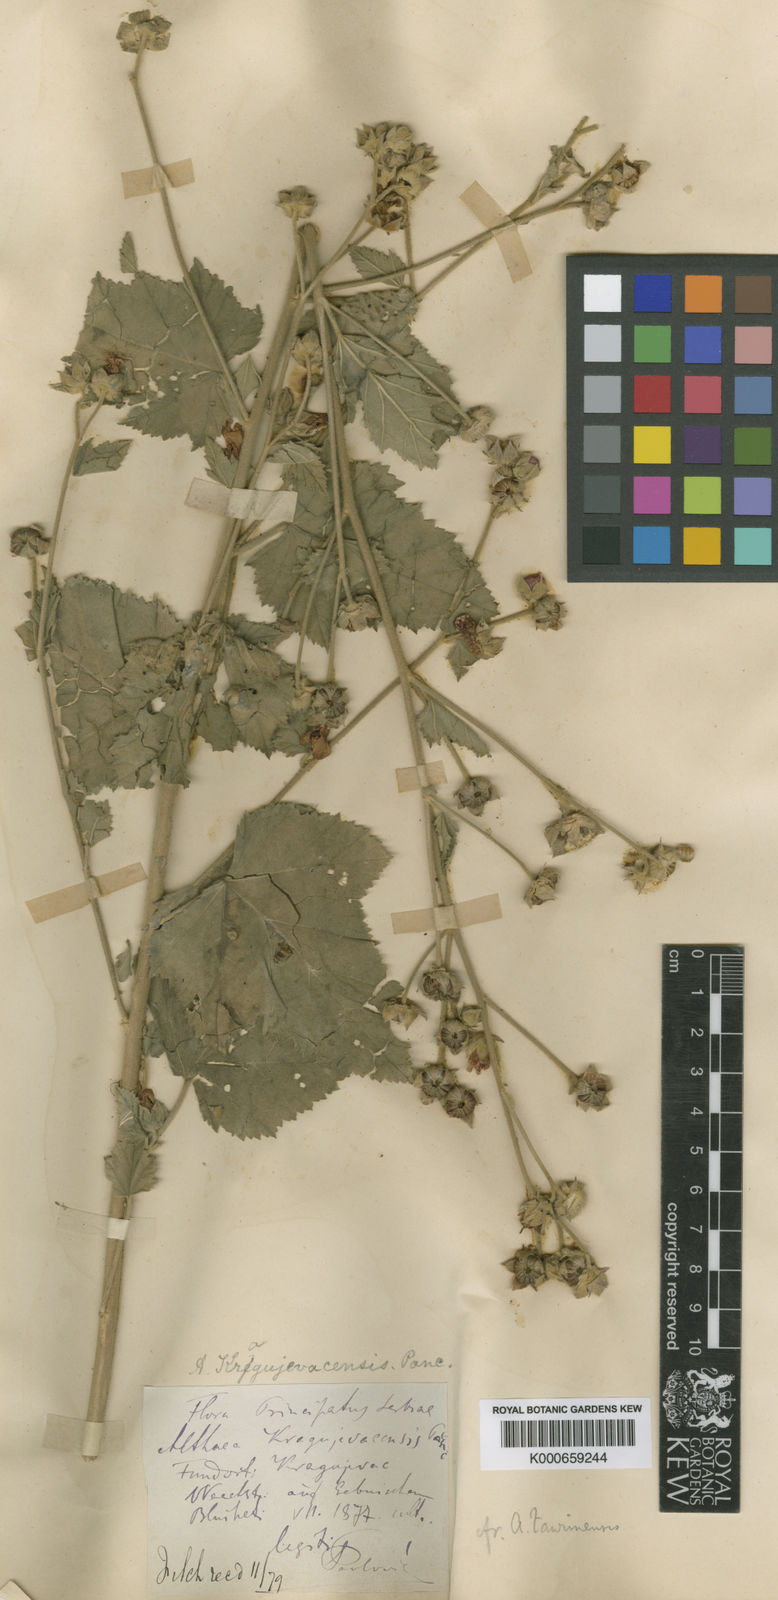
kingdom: Plantae
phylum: Tracheophyta
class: Magnoliopsida
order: Malvales
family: Malvaceae
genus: Althaea
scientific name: Althaea taurinensis
